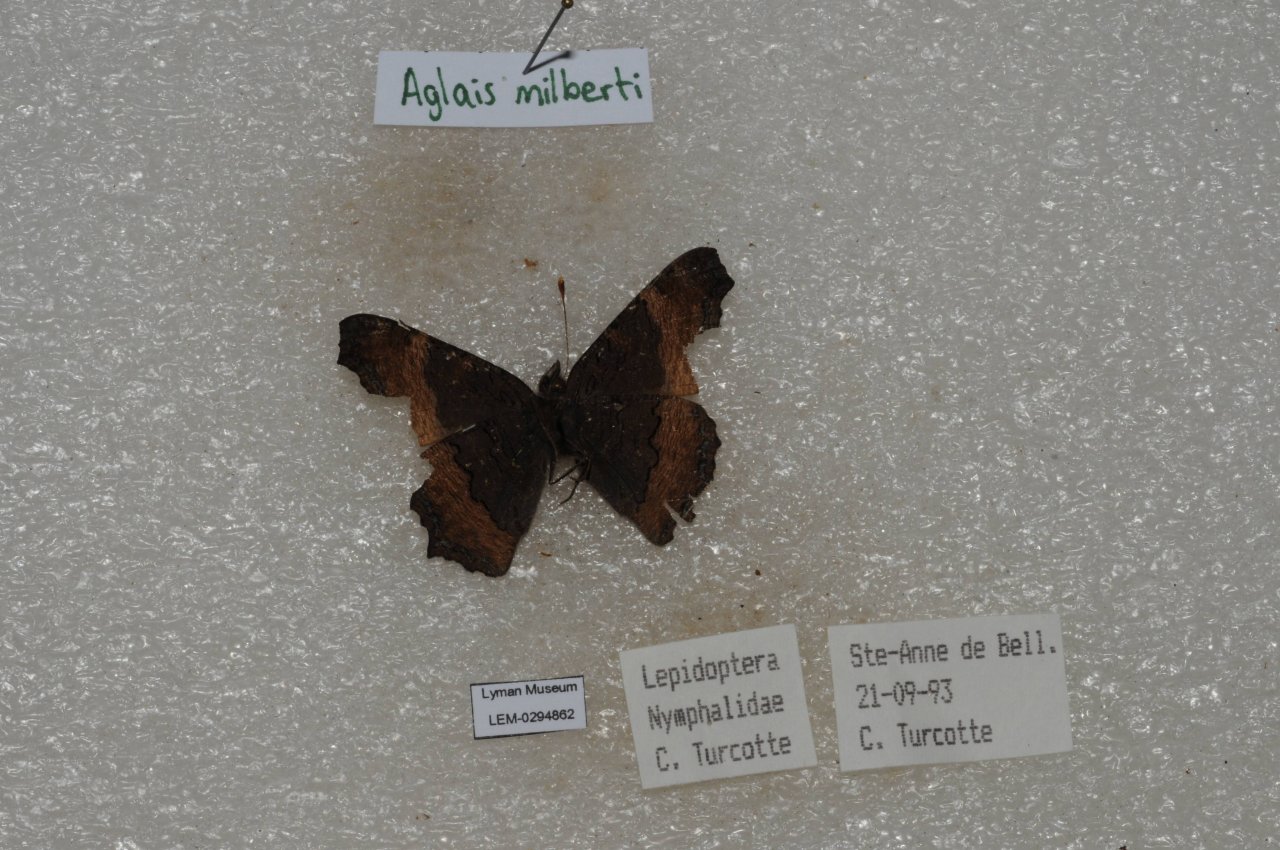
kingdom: Animalia
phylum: Arthropoda
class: Insecta
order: Lepidoptera
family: Nymphalidae
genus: Aglais
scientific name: Aglais milberti
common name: Milbert's Tortoiseshell
